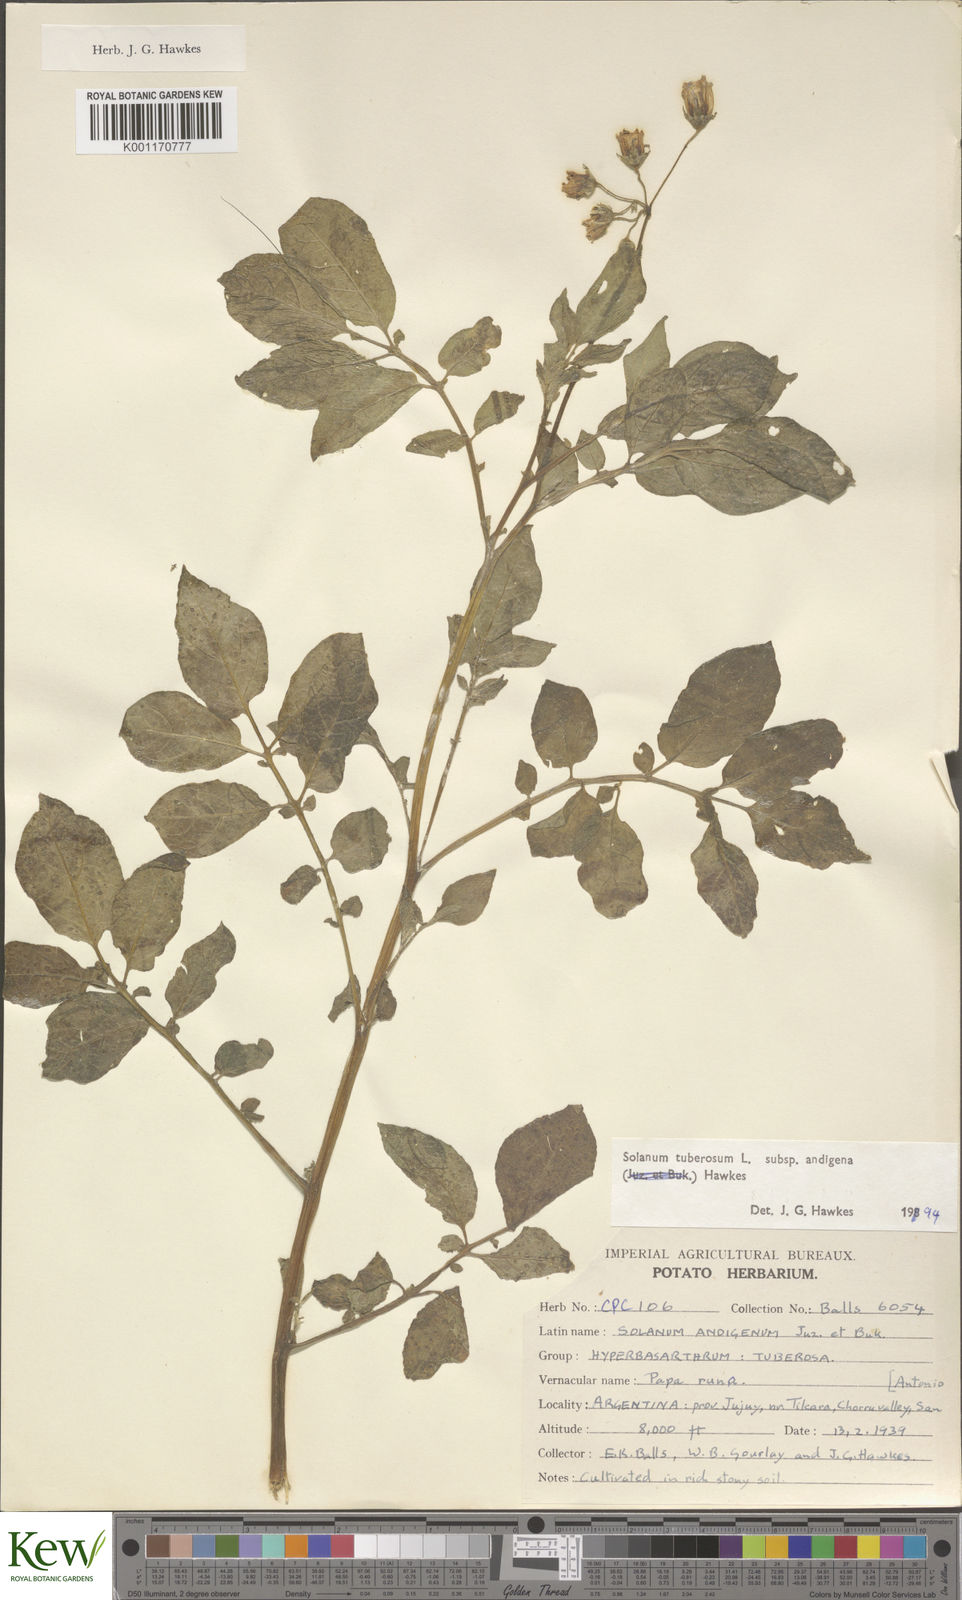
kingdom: Plantae
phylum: Tracheophyta
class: Magnoliopsida
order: Solanales
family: Solanaceae
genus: Solanum
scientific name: Solanum tuberosum
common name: Potato
